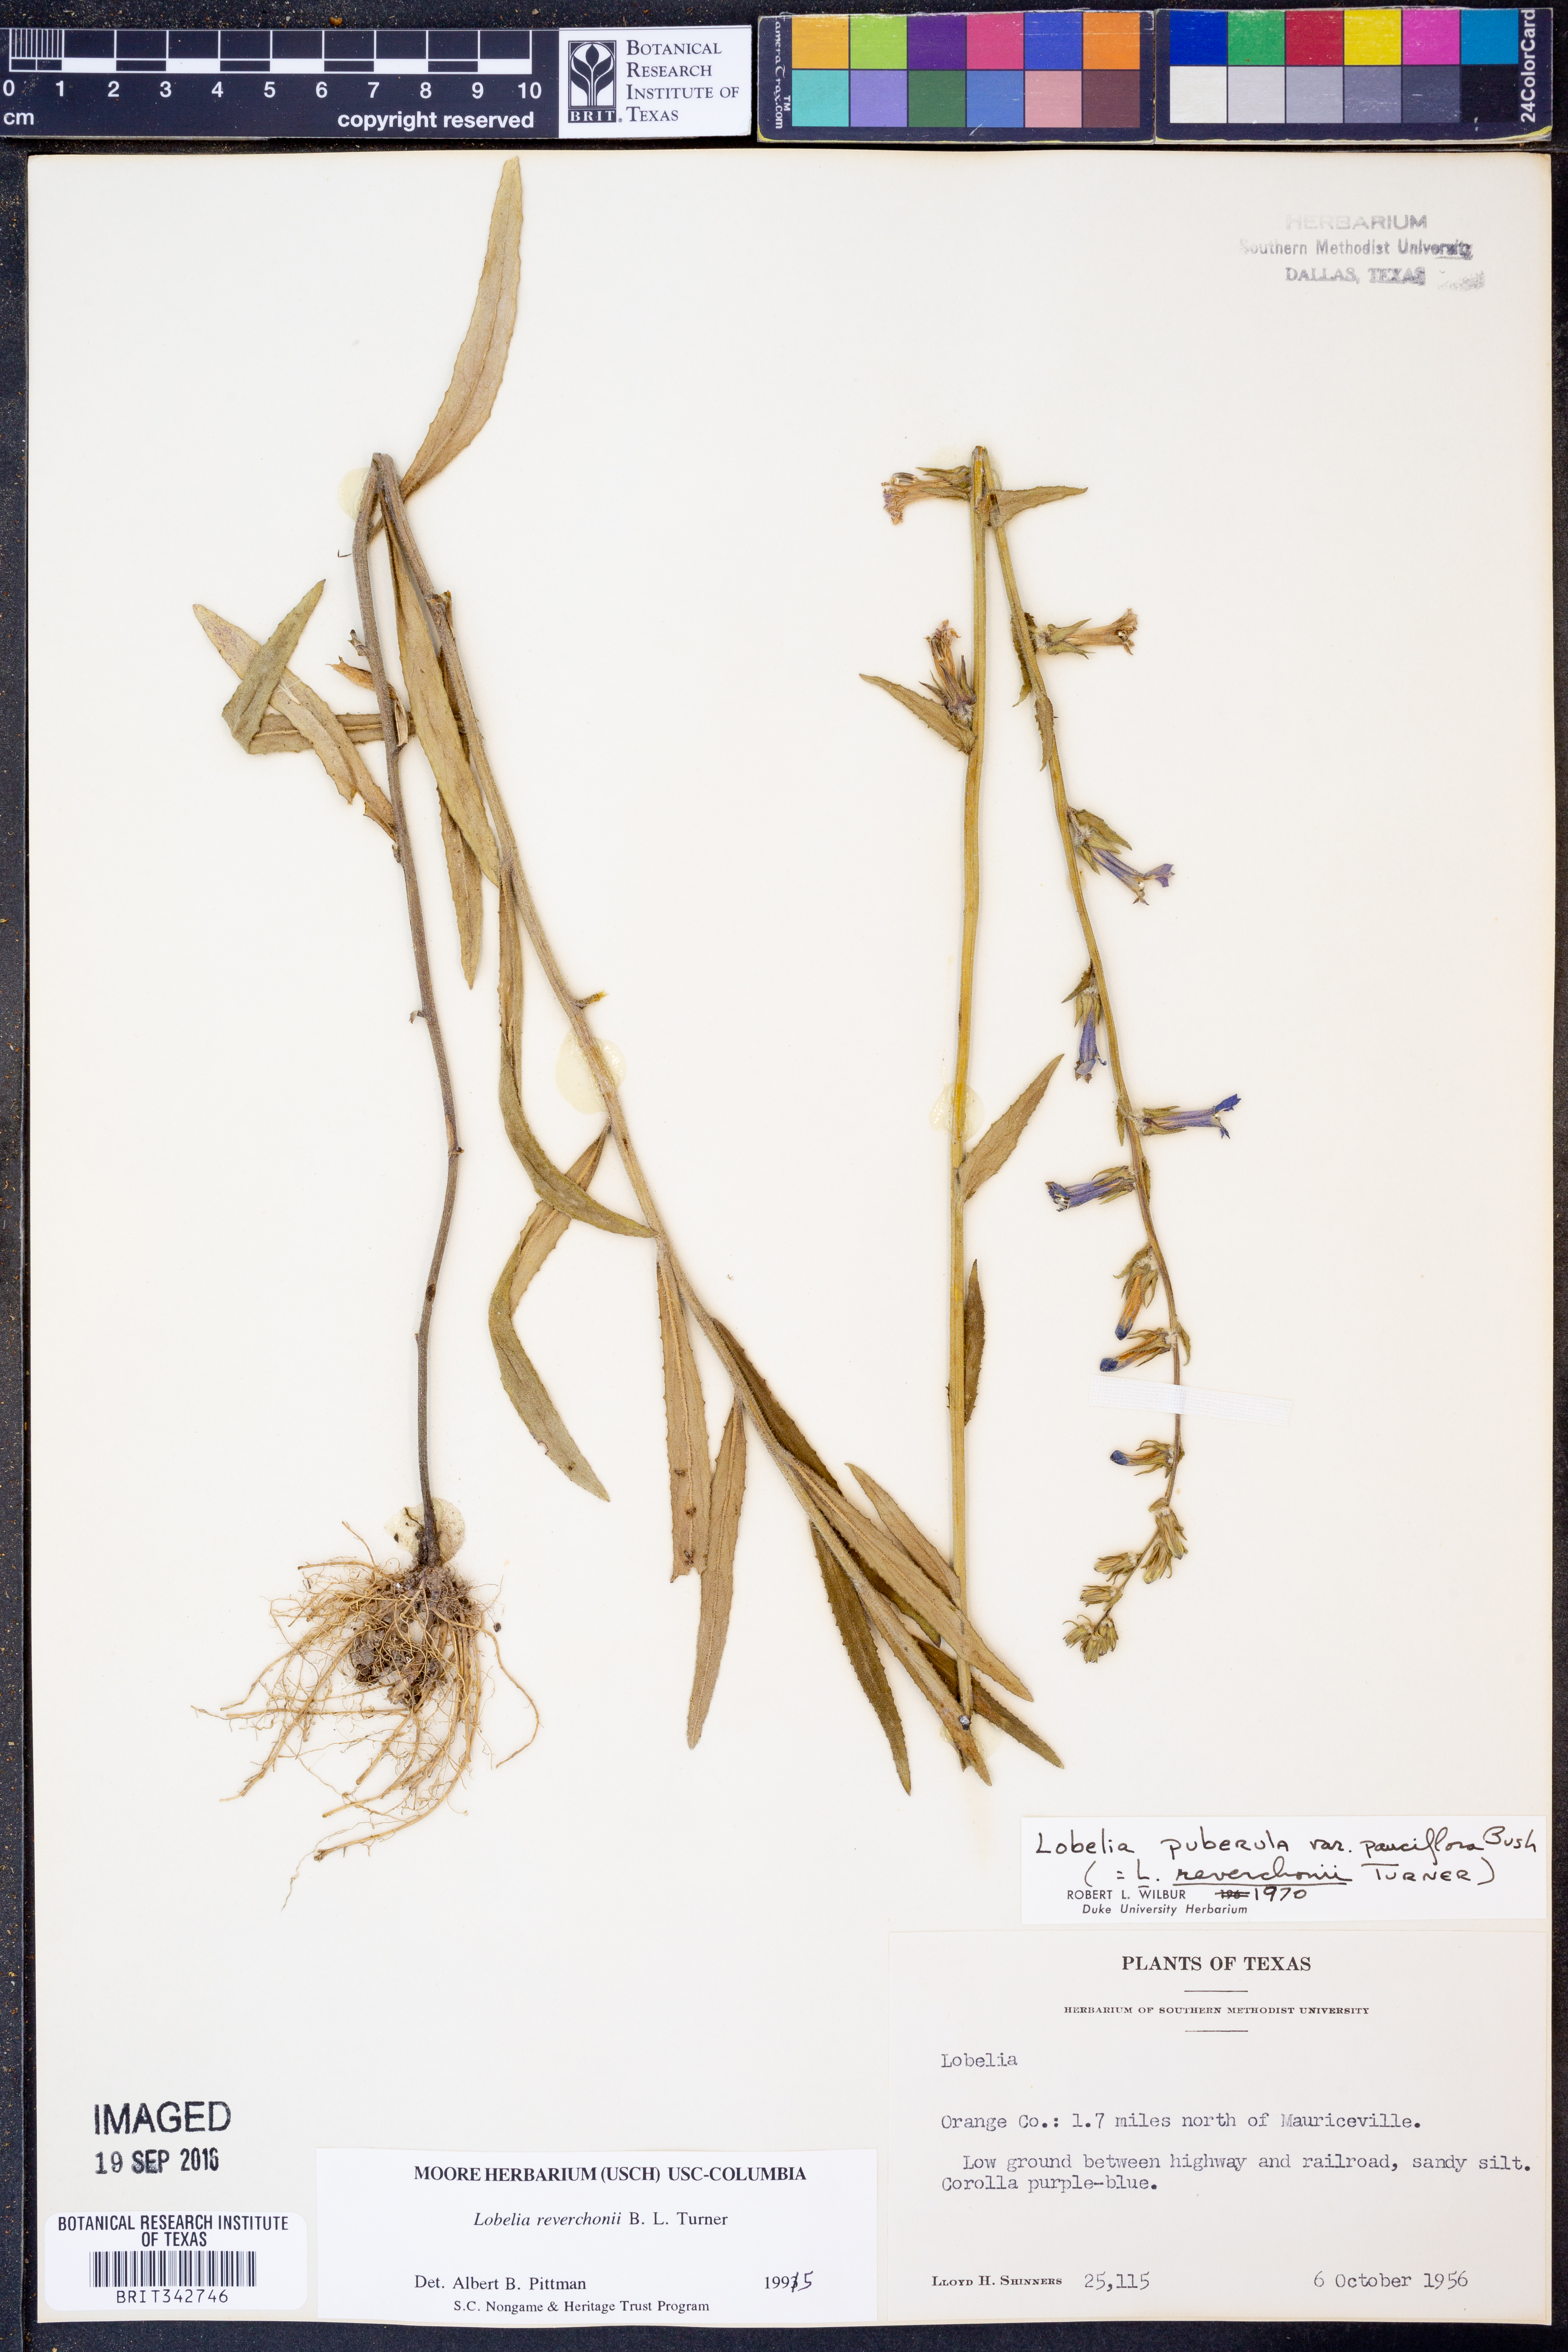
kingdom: Plantae
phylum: Tracheophyta
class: Magnoliopsida
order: Asterales
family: Campanulaceae
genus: Lobelia
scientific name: Lobelia reverchonii
